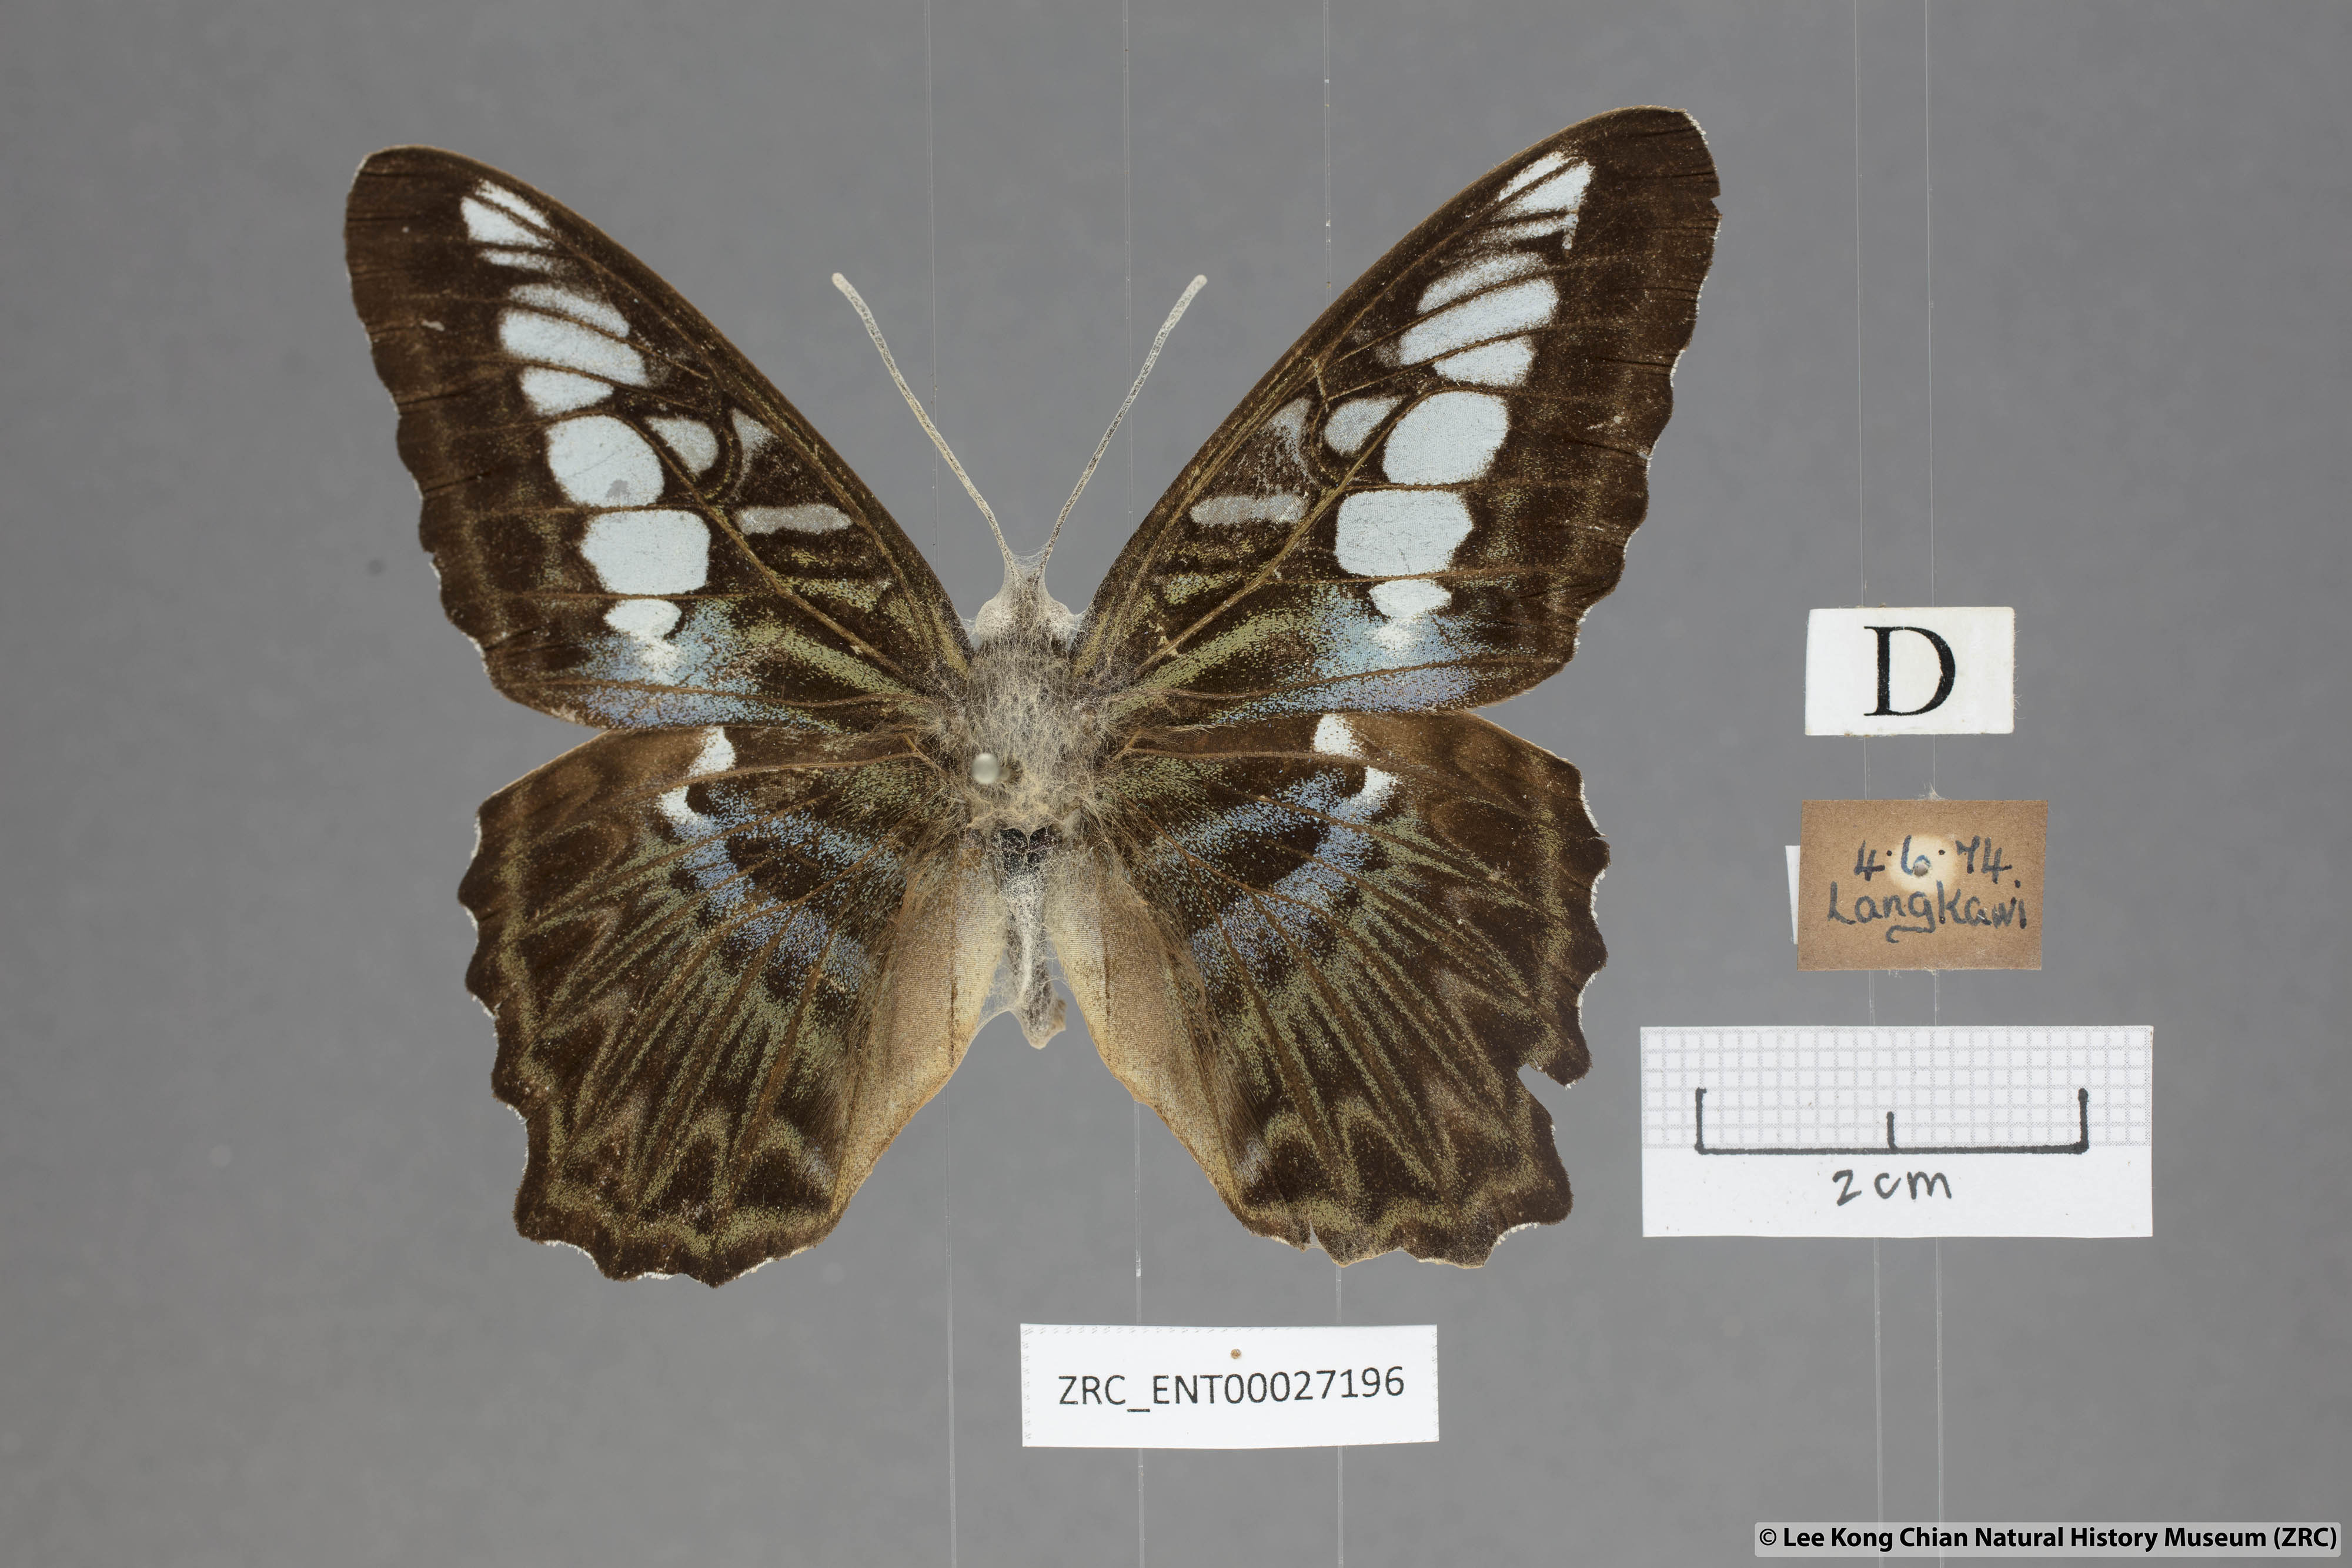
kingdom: Animalia
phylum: Arthropoda
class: Insecta
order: Lepidoptera
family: Nymphalidae
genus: Kallima
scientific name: Kallima sylvia
